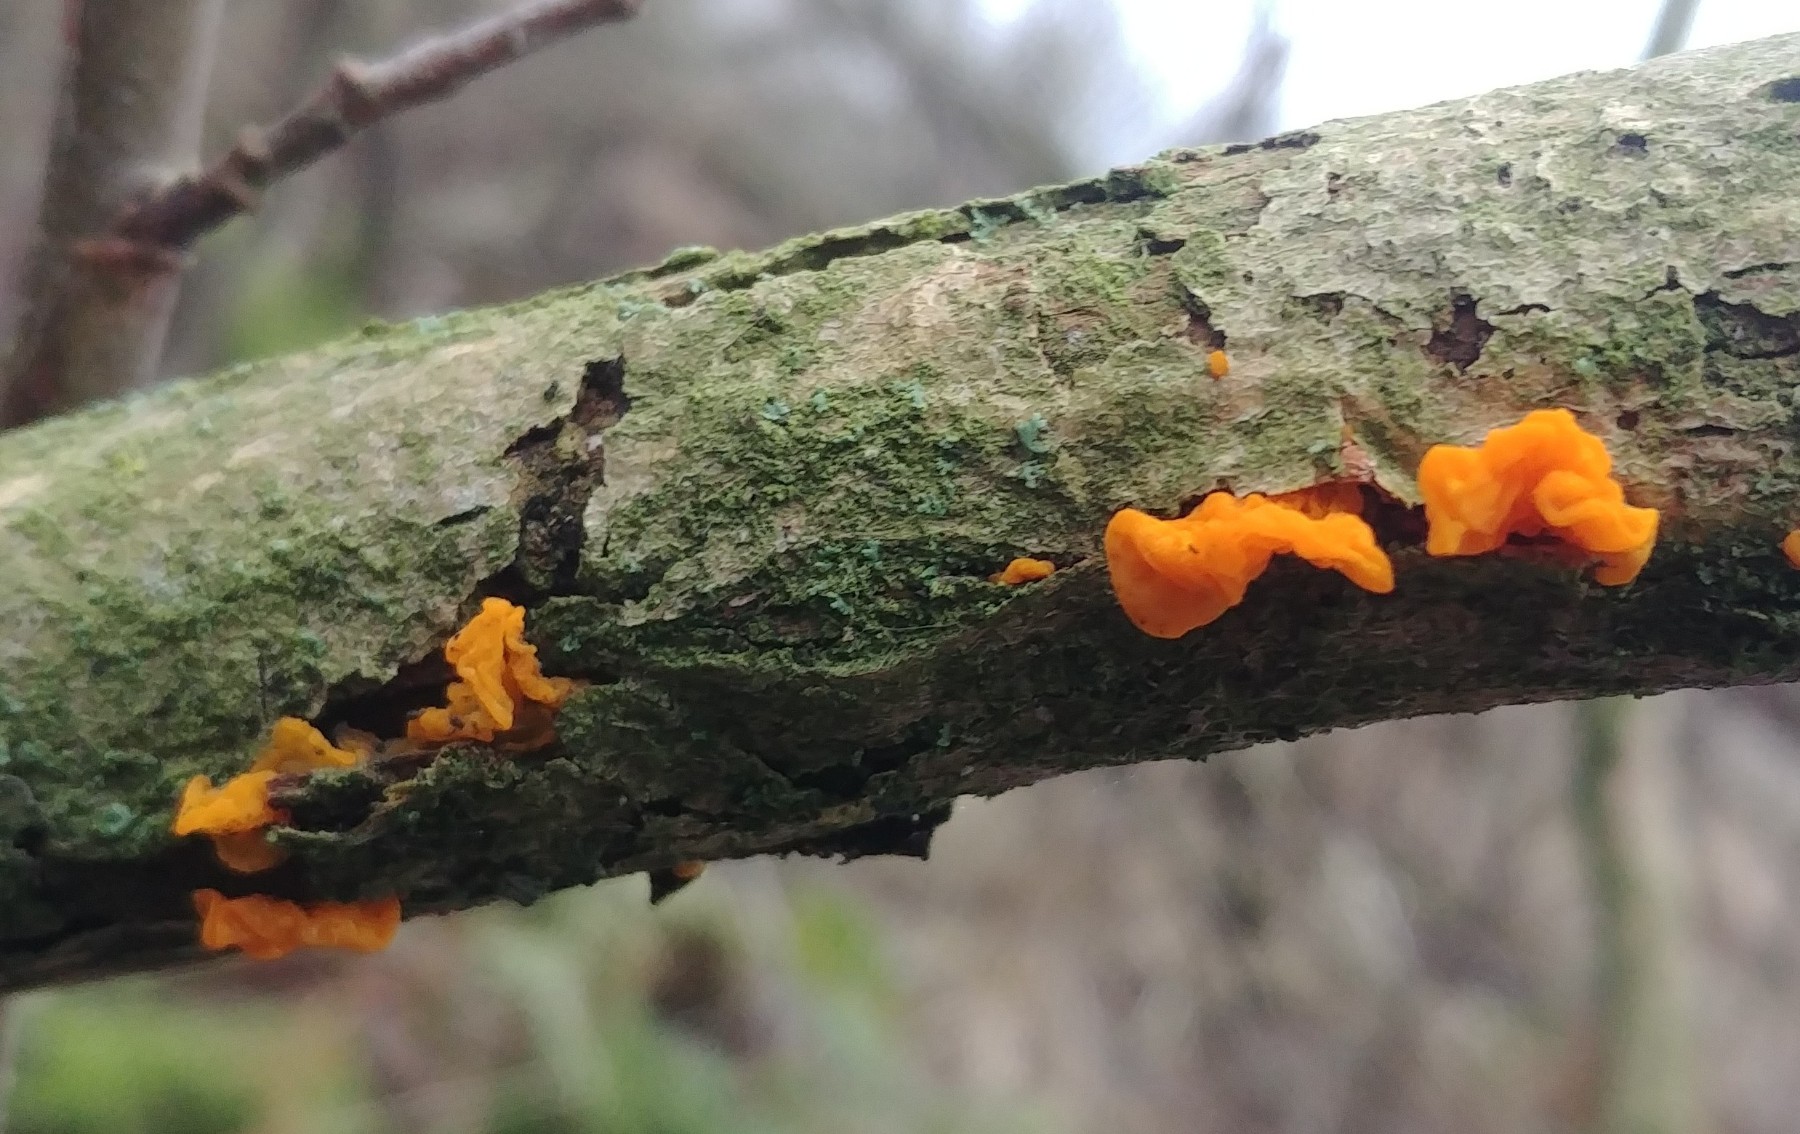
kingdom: Fungi
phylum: Basidiomycota
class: Tremellomycetes
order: Tremellales
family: Tremellaceae
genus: Tremella
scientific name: Tremella mesenterica
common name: gul bævresvamp
